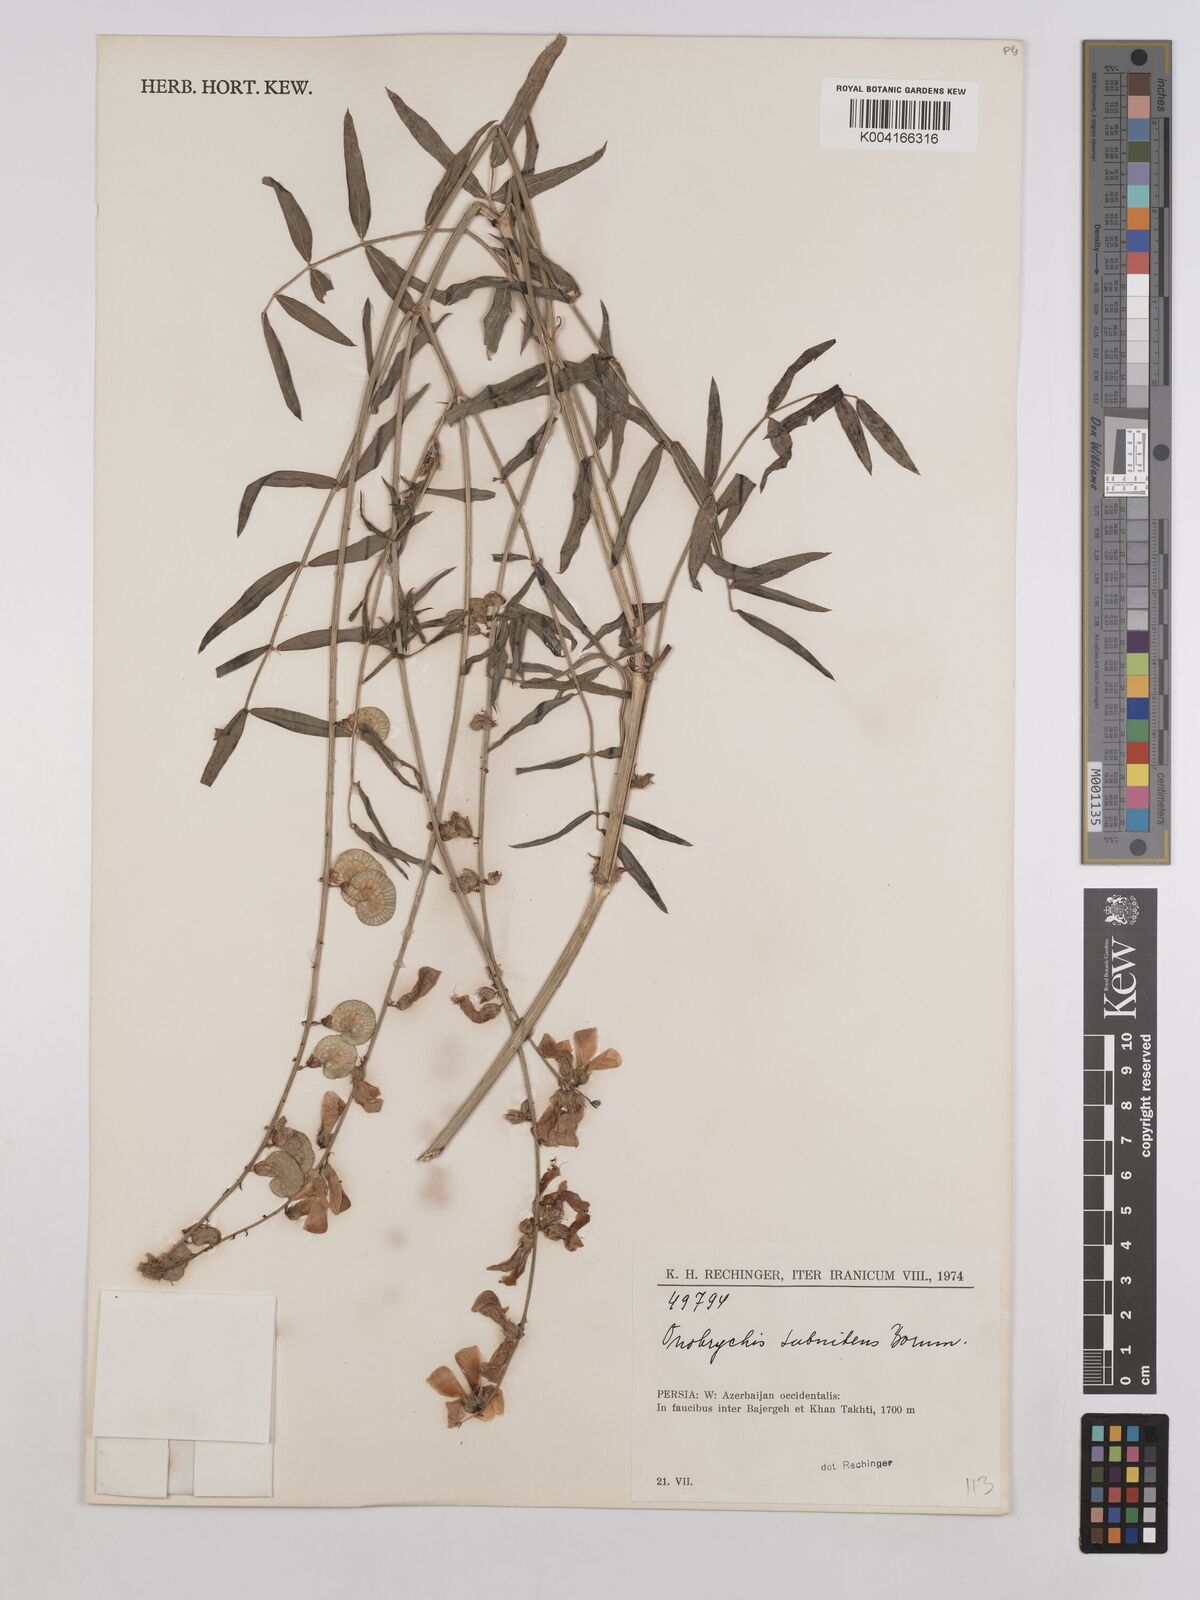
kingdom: Plantae
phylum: Tracheophyta
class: Magnoliopsida
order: Fabales
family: Fabaceae
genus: Onobrychis
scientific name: Onobrychis subnitens
